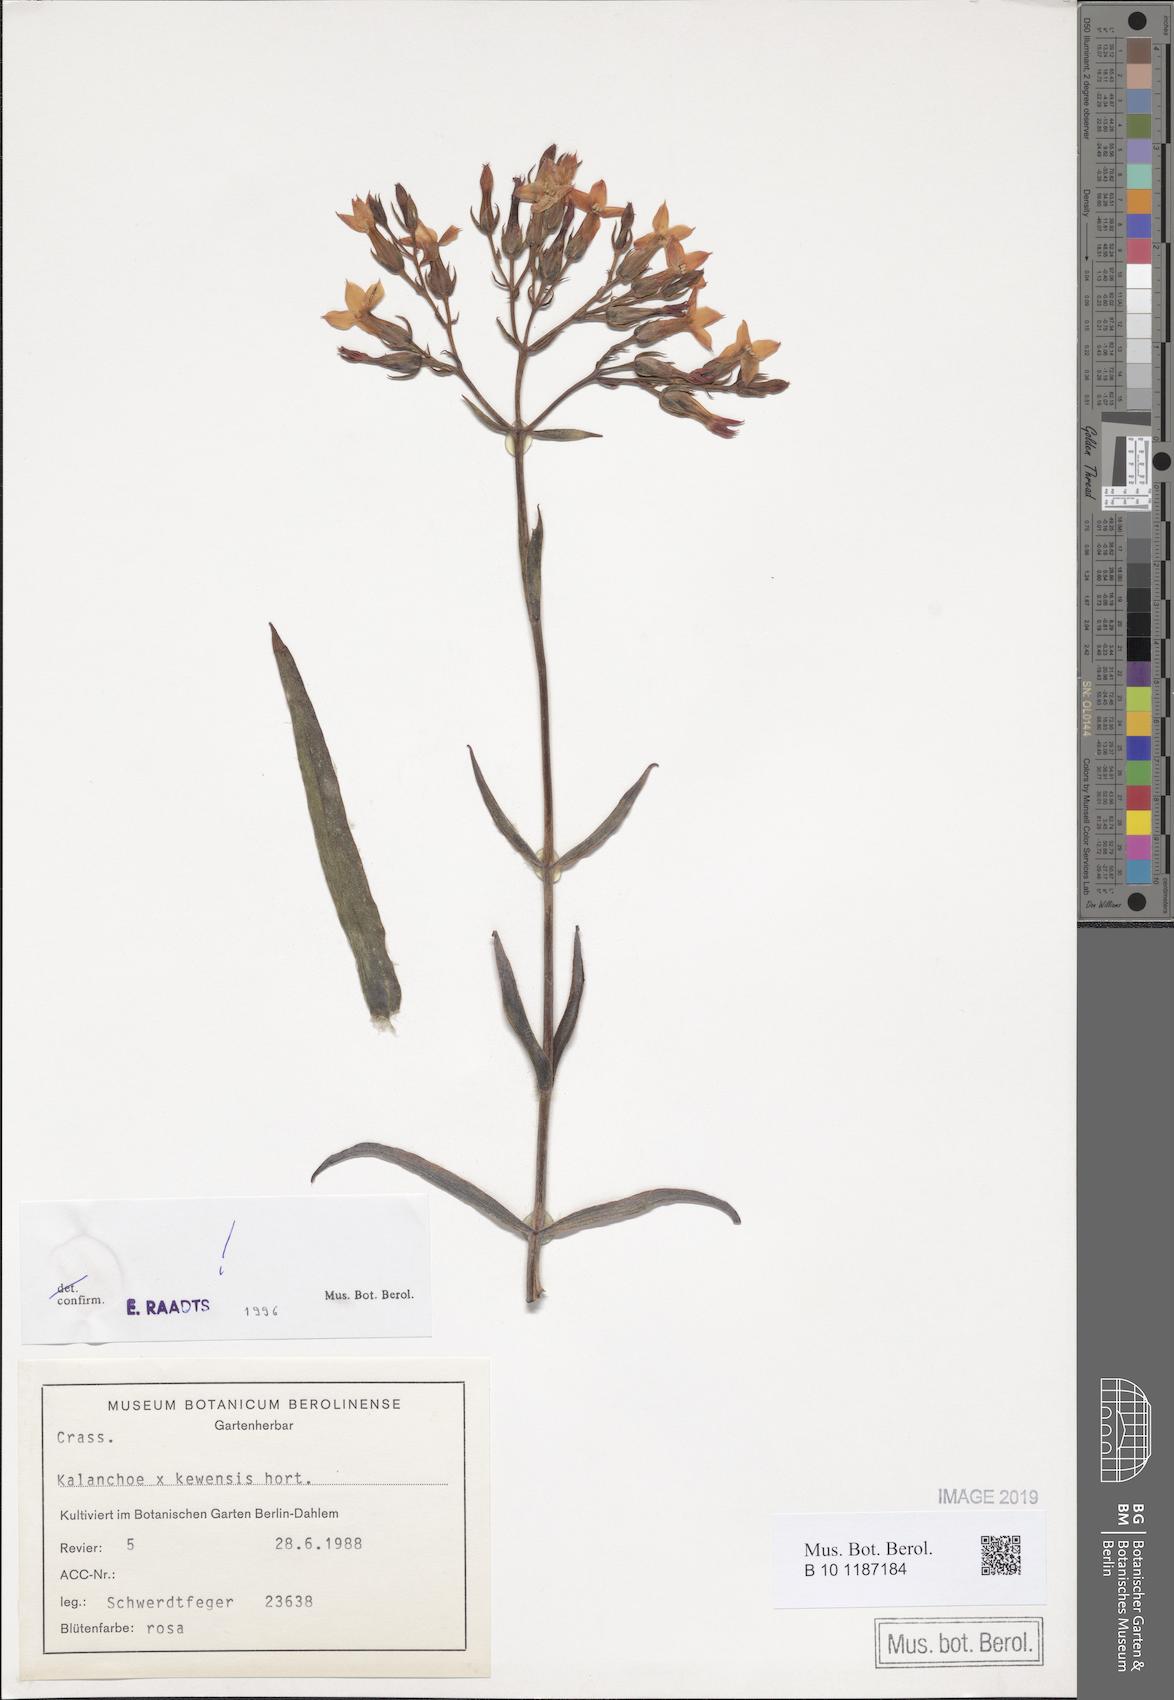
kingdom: Plantae
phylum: Tracheophyta
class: Magnoliopsida
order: Saxifragales
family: Crassulaceae
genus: Kalanchoe
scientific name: Kalanchoe kewensis
